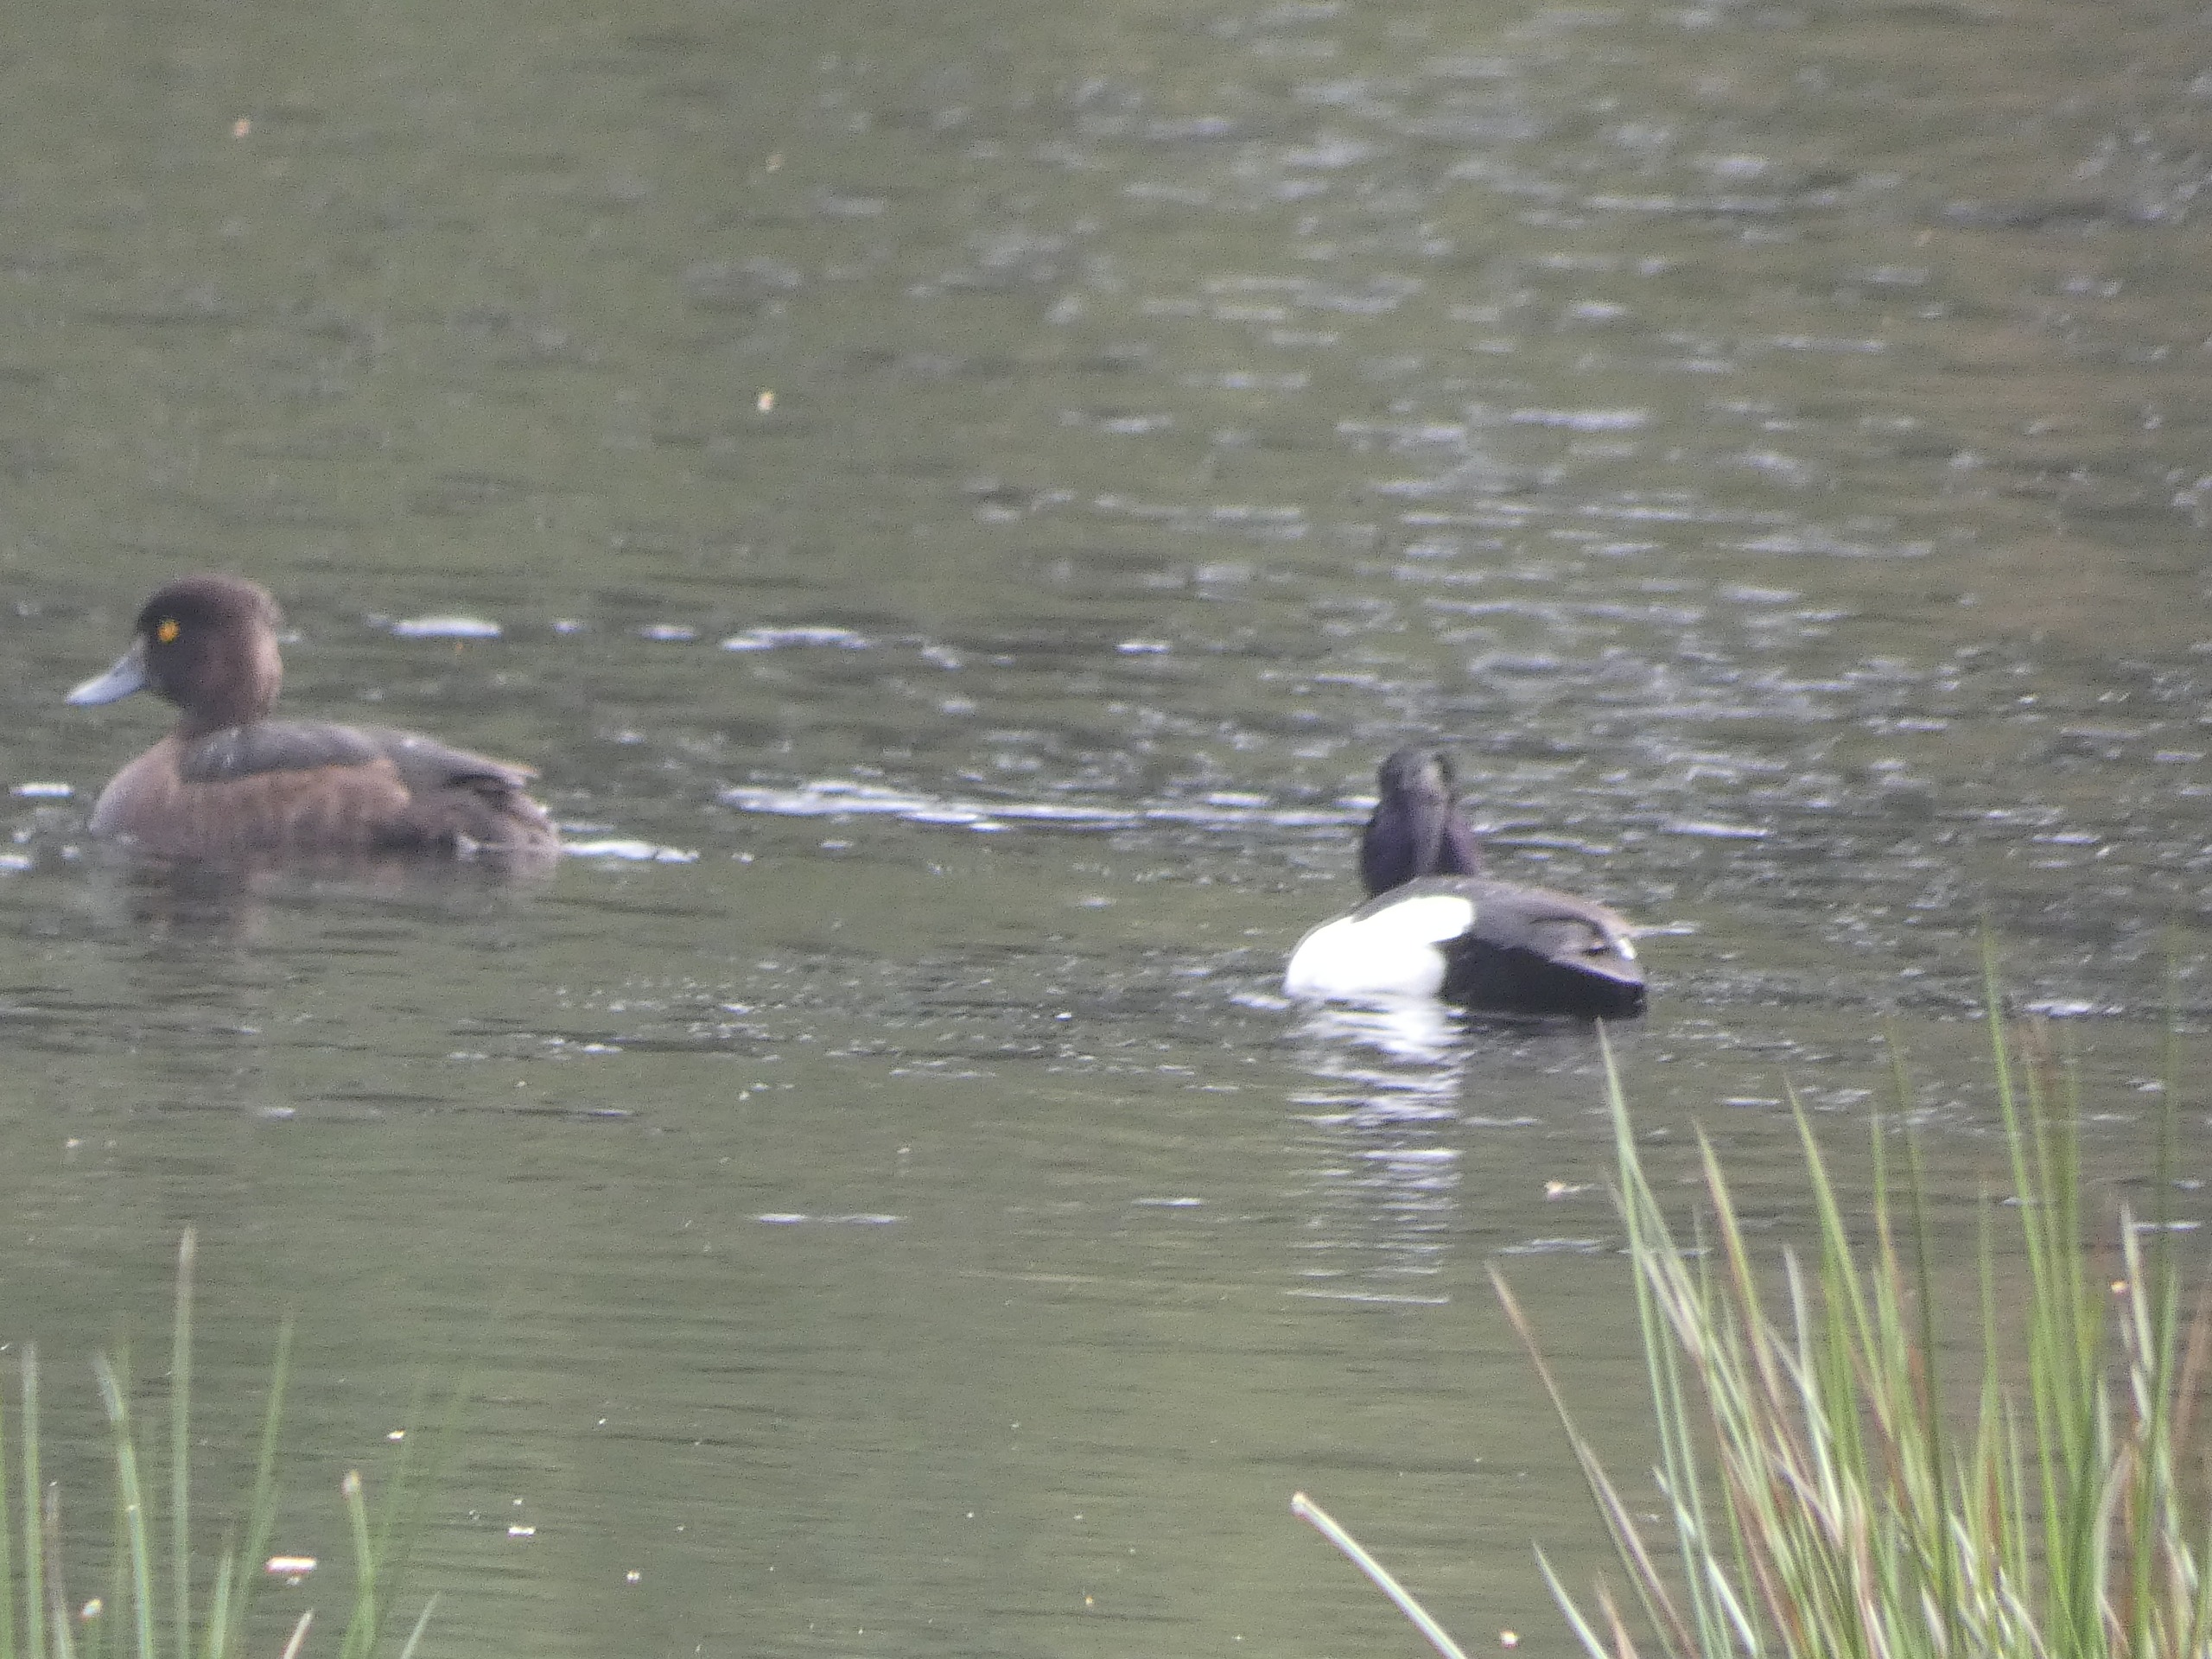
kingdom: Animalia
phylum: Chordata
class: Aves
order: Anseriformes
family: Anatidae
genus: Aythya
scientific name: Aythya fuligula
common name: Troldand
